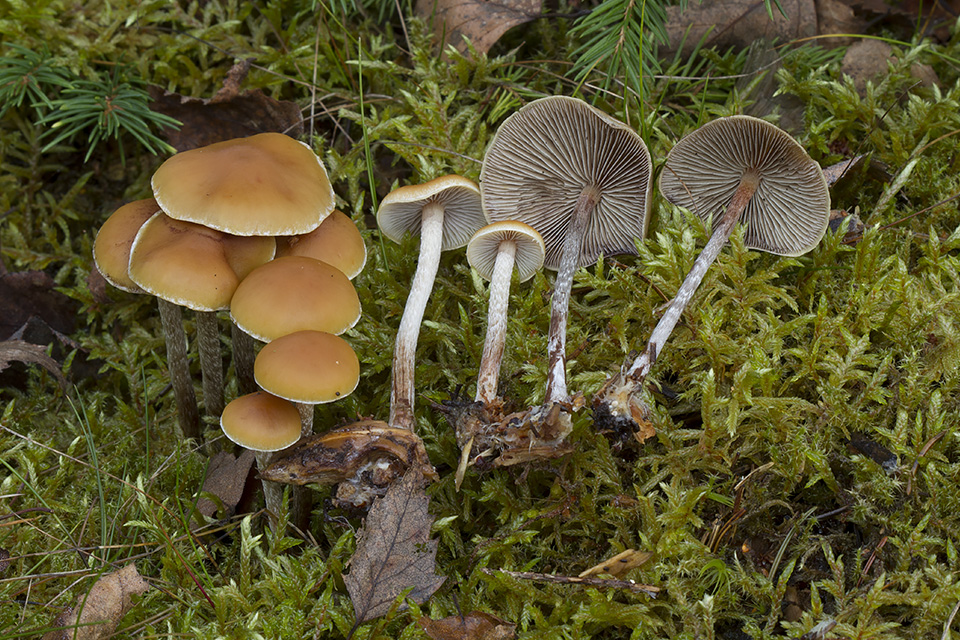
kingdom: Fungi
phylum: Basidiomycota
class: Agaricomycetes
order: Agaricales
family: Strophariaceae
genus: Hypholoma
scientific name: Hypholoma marginatum
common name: enlig svovlhat
